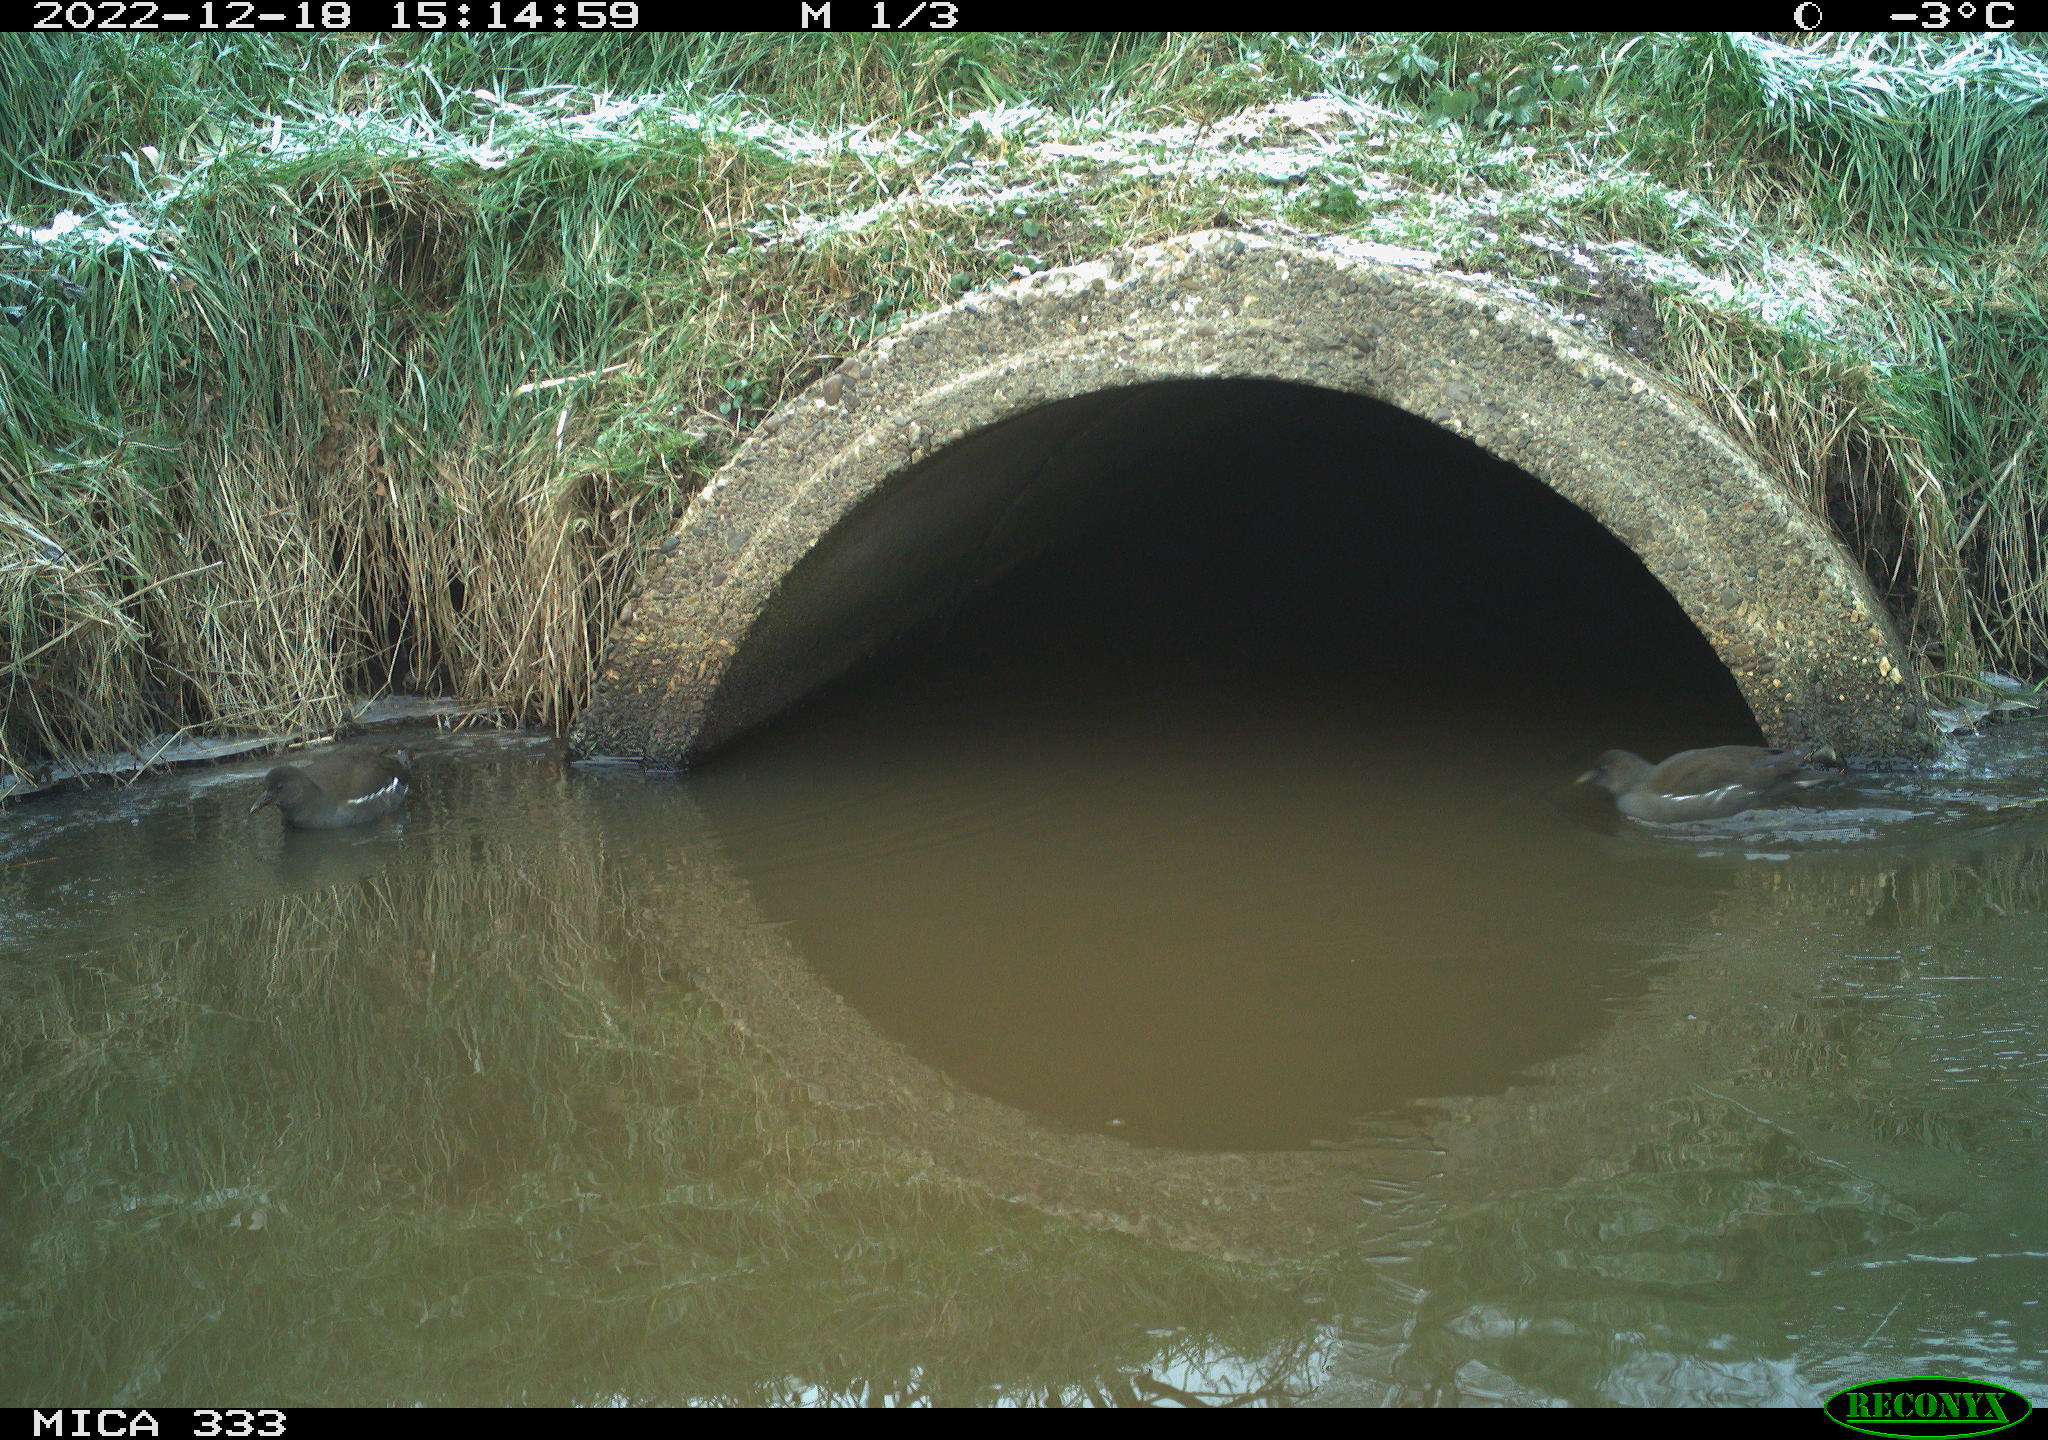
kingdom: Animalia
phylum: Chordata
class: Aves
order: Gruiformes
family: Rallidae
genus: Gallinula
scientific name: Gallinula chloropus
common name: Common moorhen
